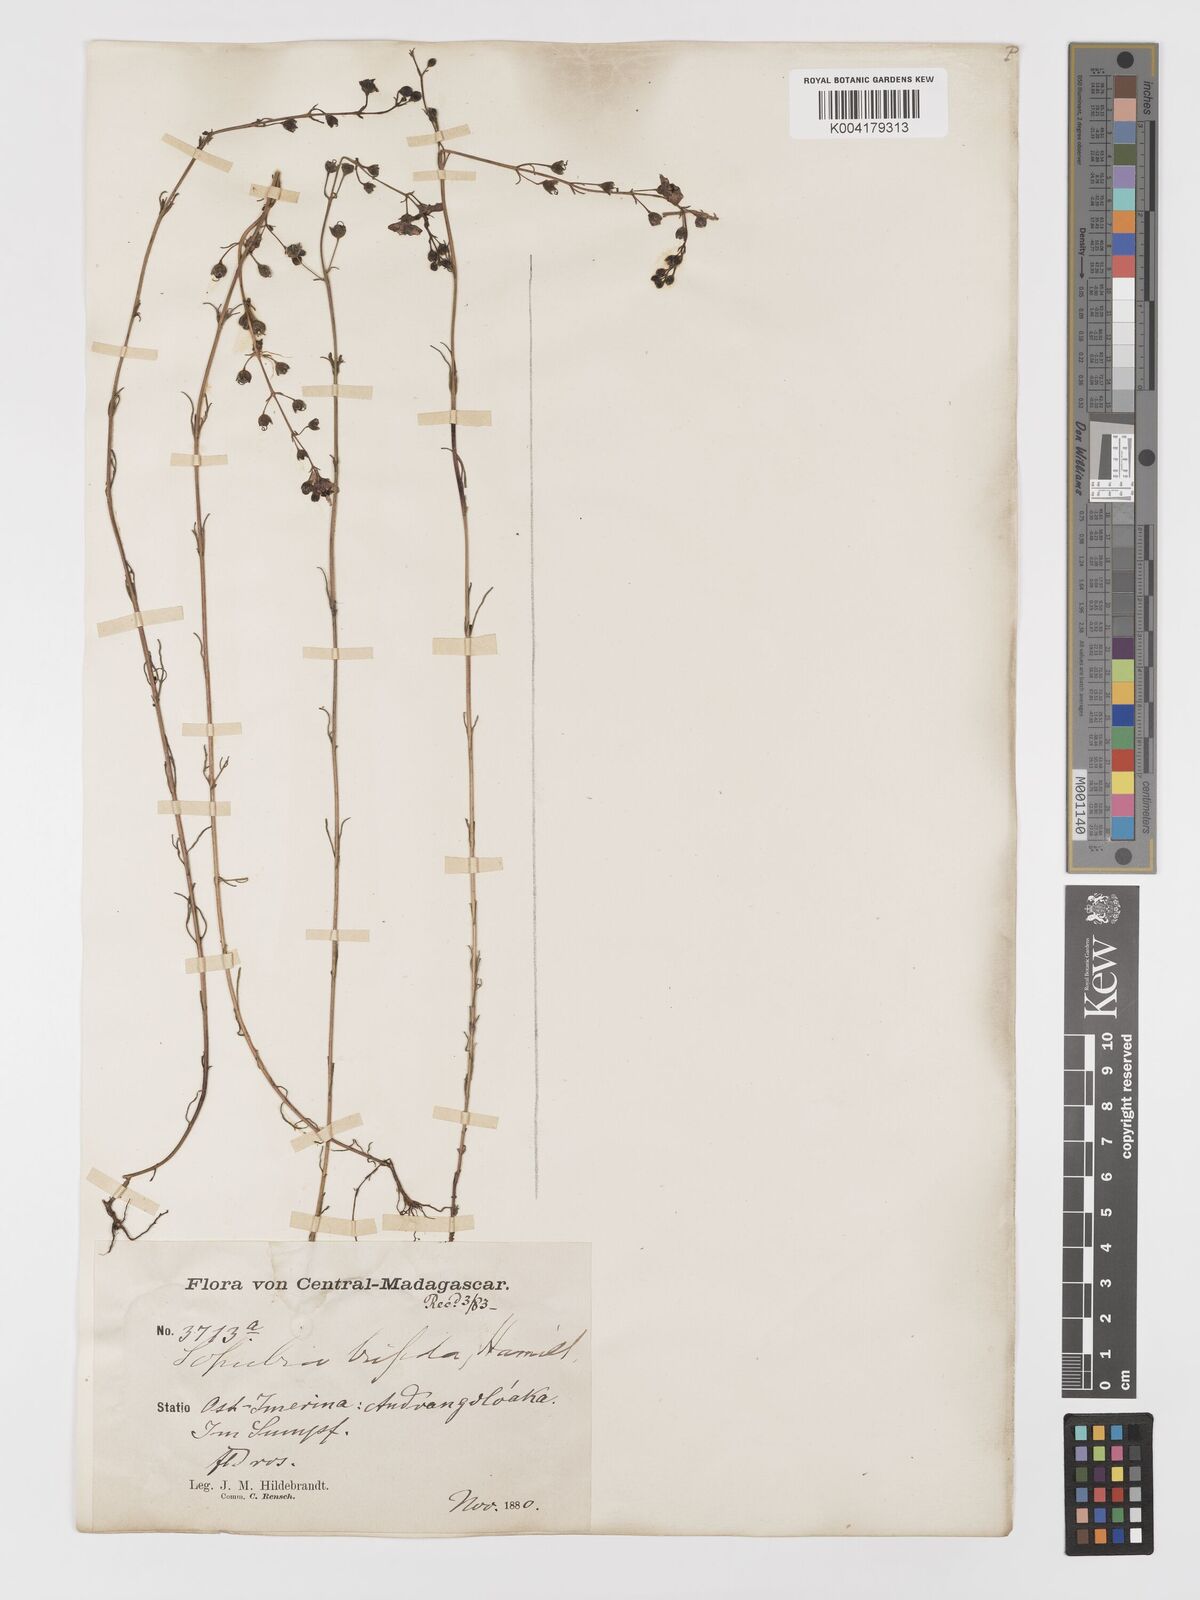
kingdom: Plantae
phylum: Tracheophyta
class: Magnoliopsida
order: Lamiales
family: Orobanchaceae
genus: Sopubia
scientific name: Sopubia trifida
